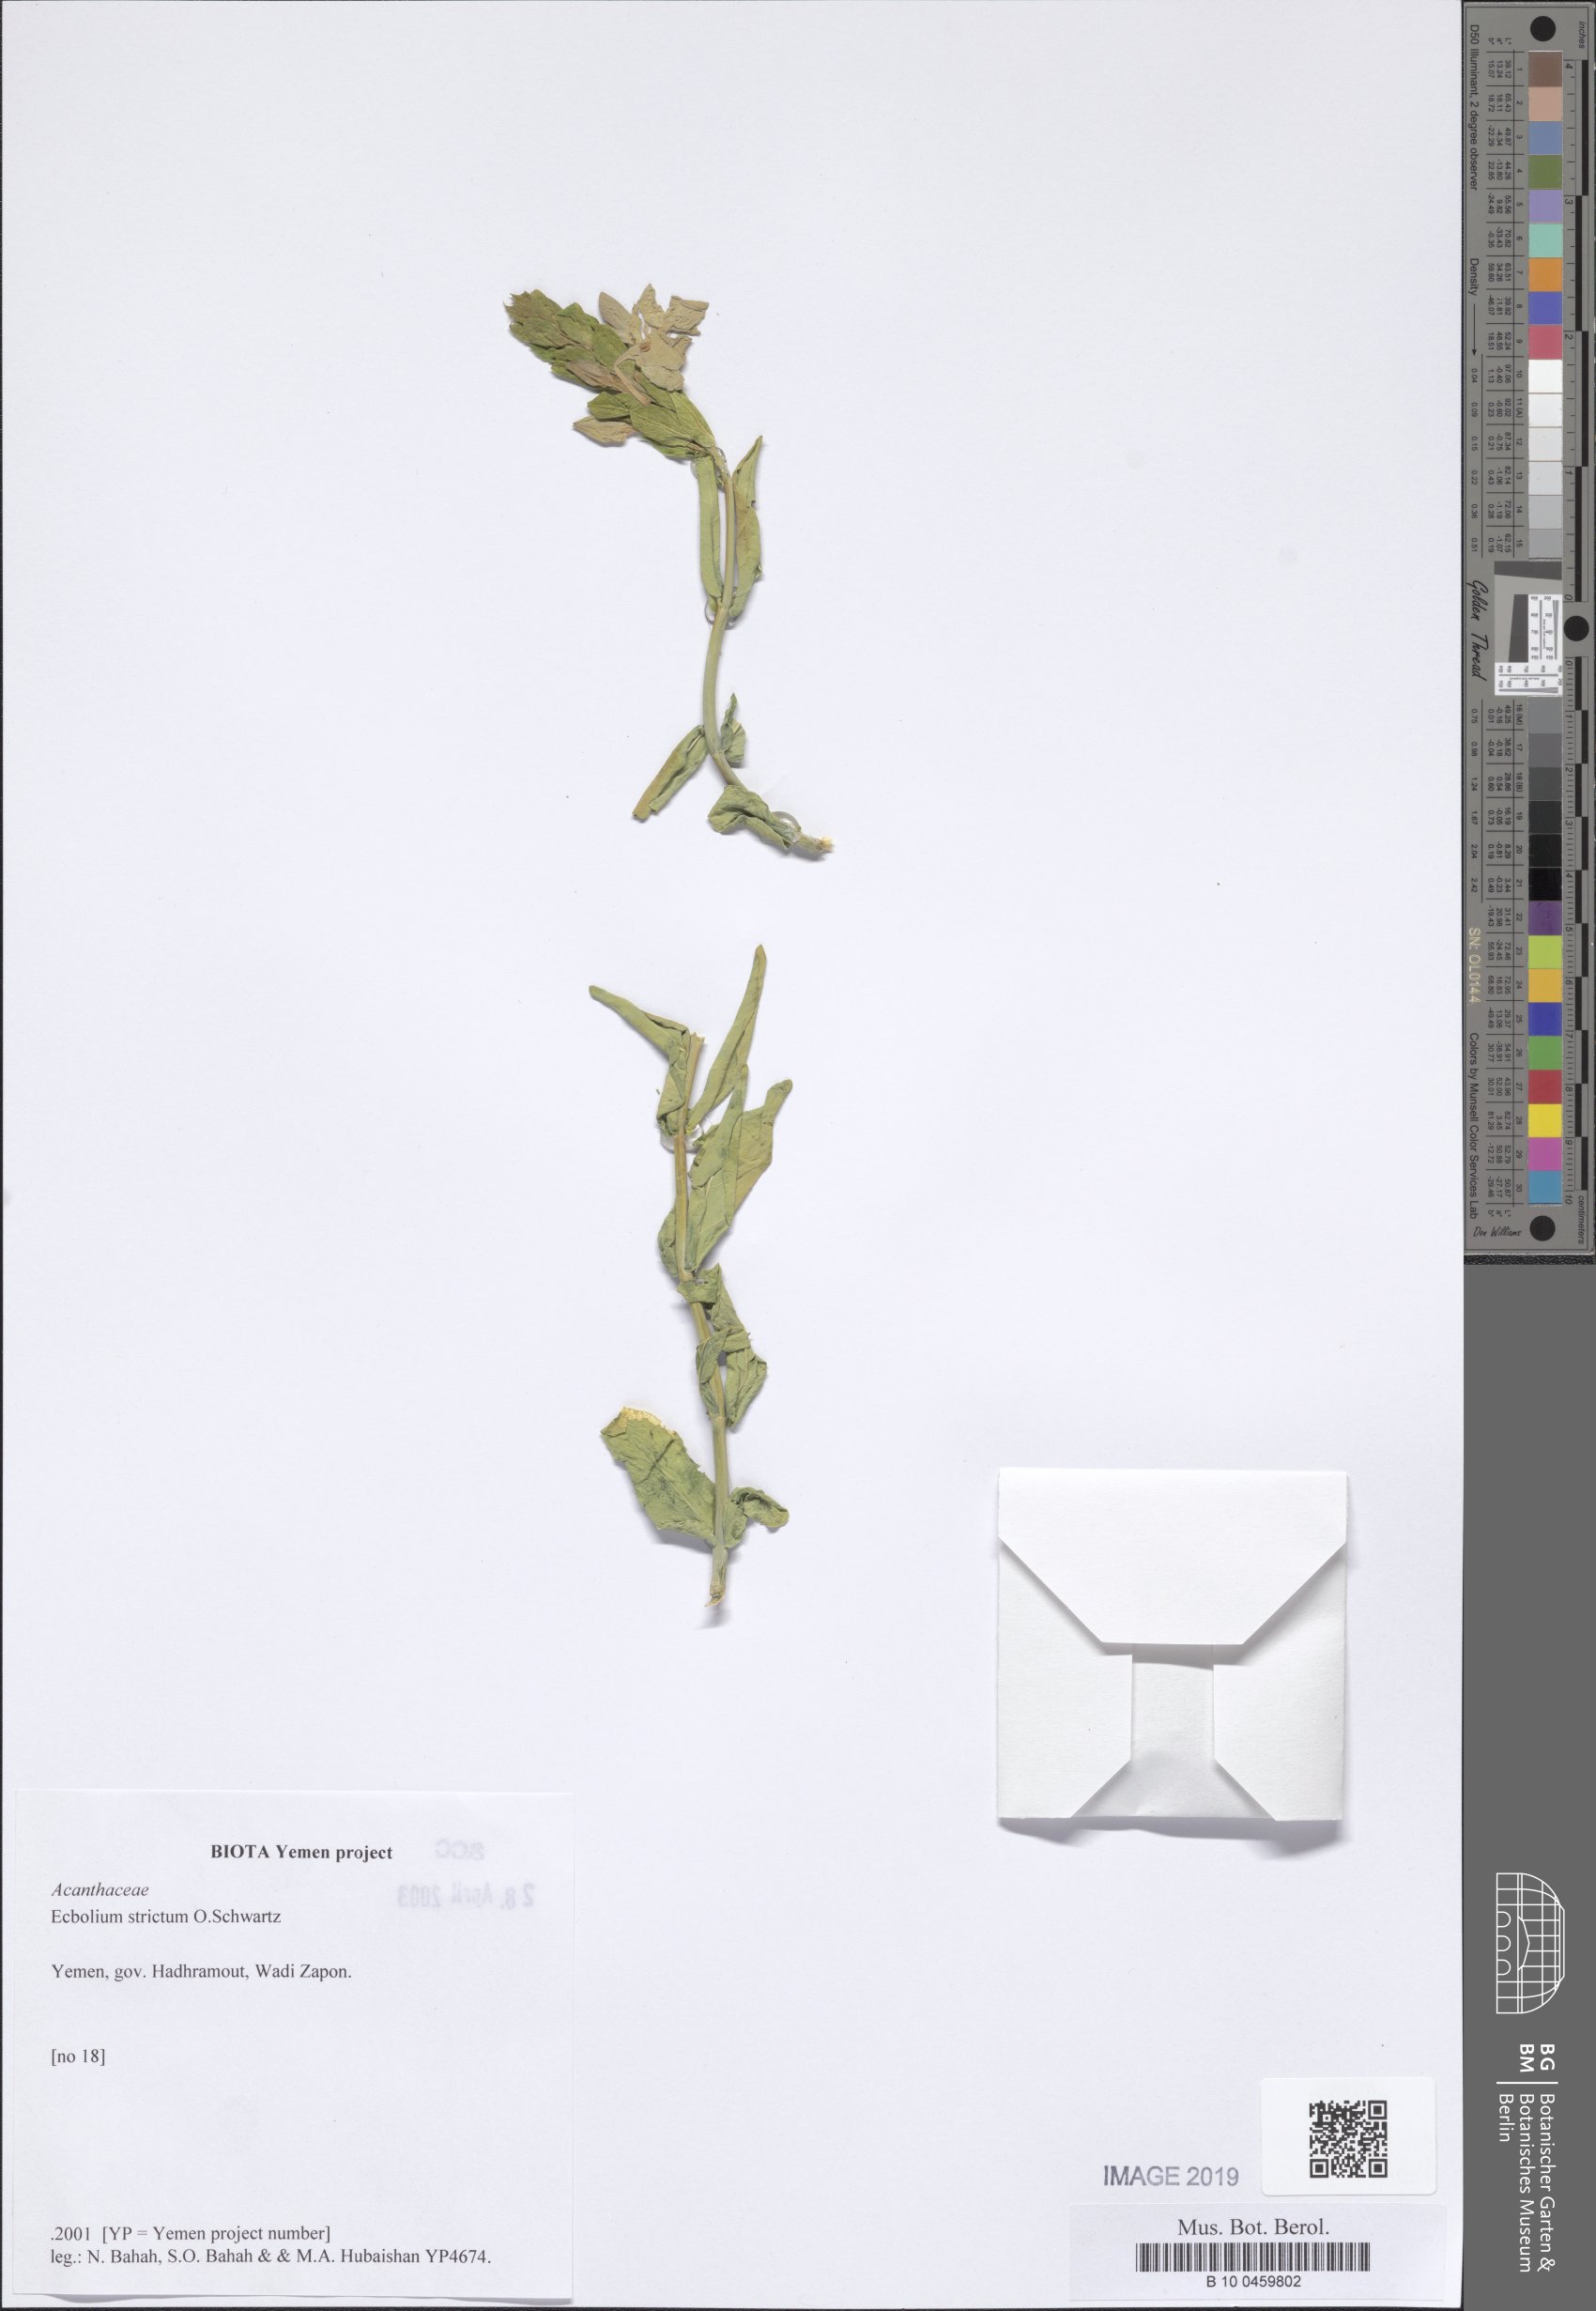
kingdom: Plantae
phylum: Tracheophyta
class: Magnoliopsida
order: Lamiales
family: Acanthaceae
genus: Ecbolium
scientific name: Ecbolium strictum
